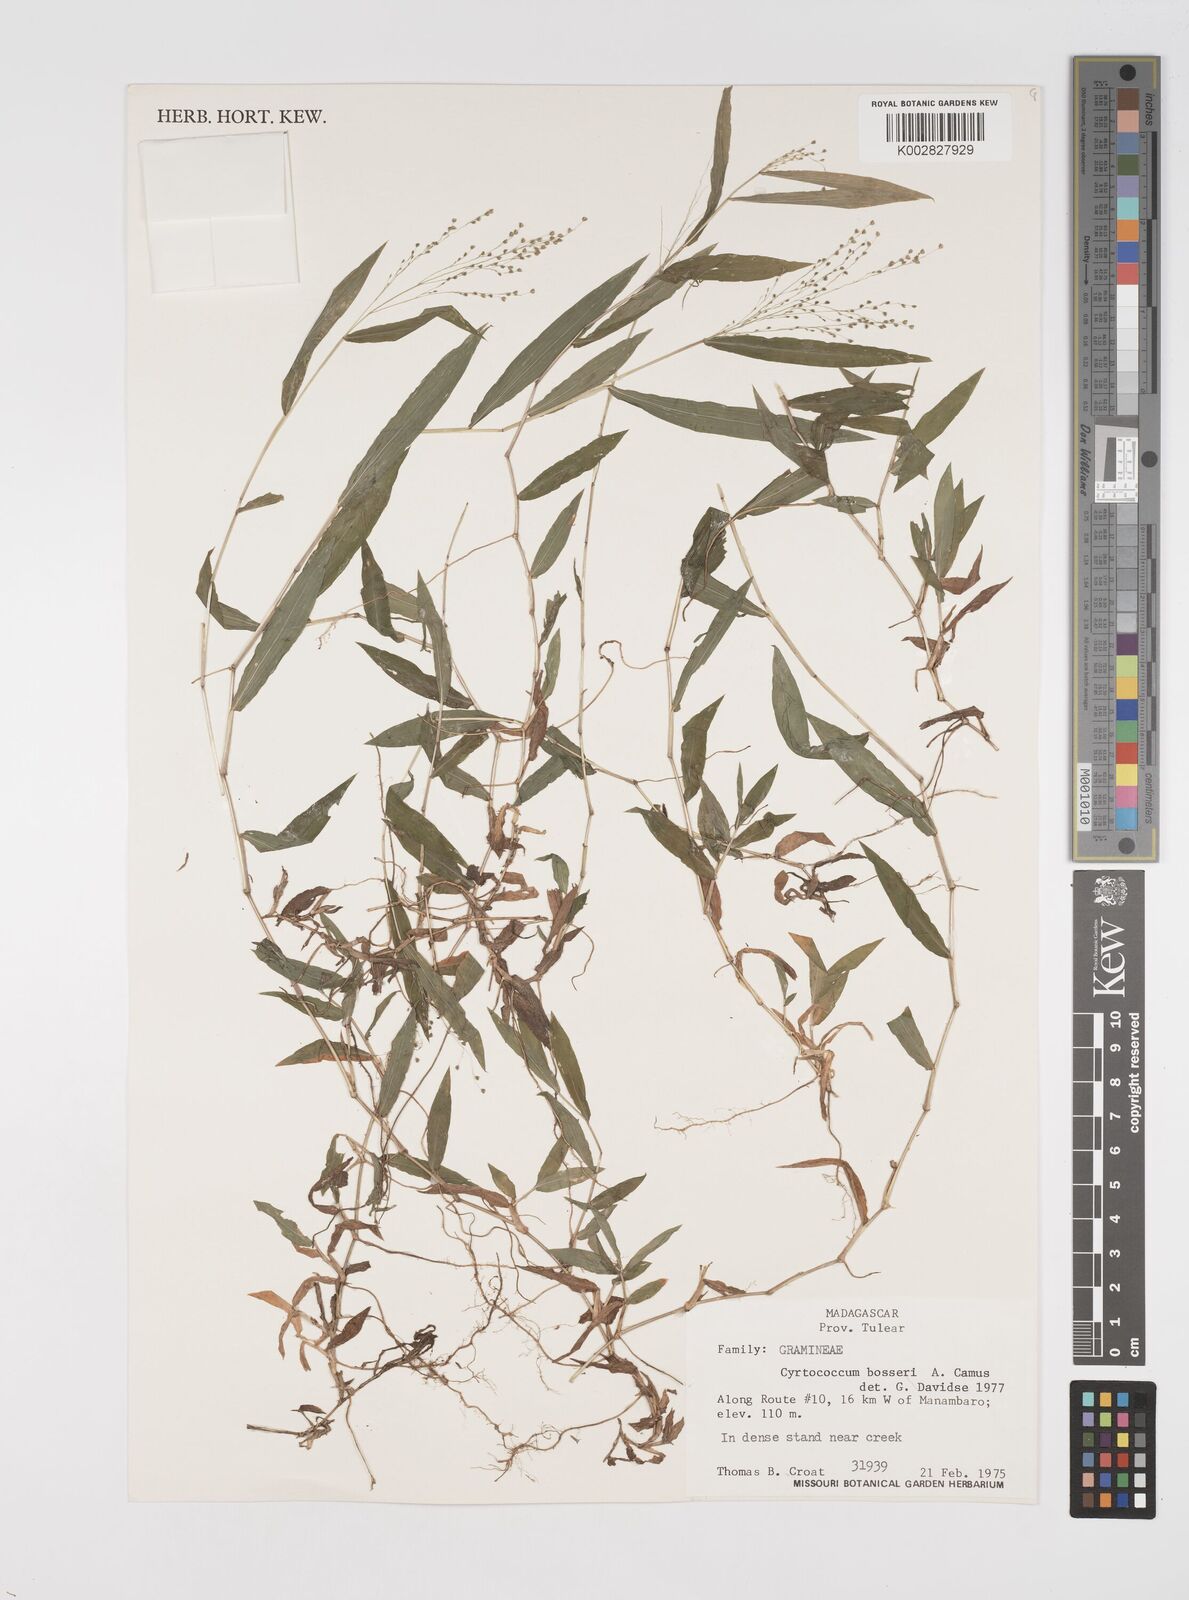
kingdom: Plantae
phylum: Tracheophyta
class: Liliopsida
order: Poales
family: Poaceae
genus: Cyrtococcum
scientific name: Cyrtococcum bosseri
